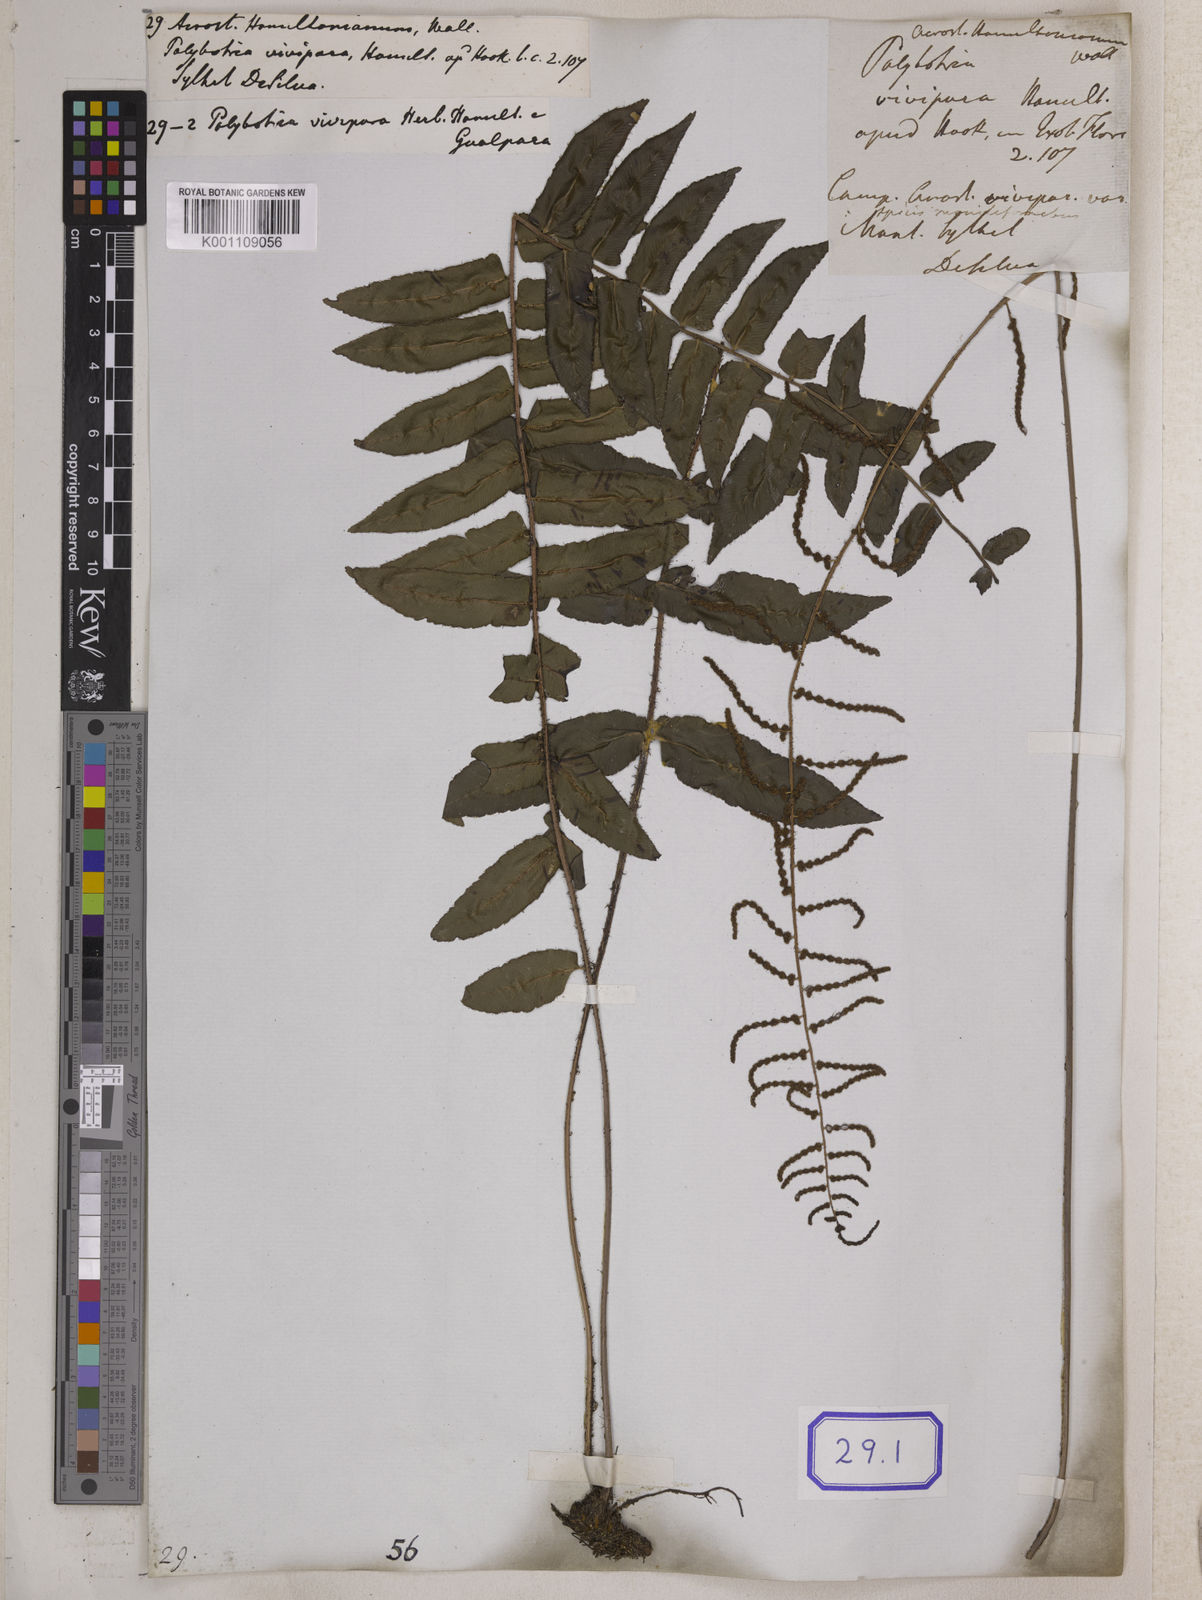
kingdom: Plantae
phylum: Tracheophyta
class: Polypodiopsida
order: Polypodiales
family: Dryopteridaceae
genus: Bolbitis
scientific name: Bolbitis
